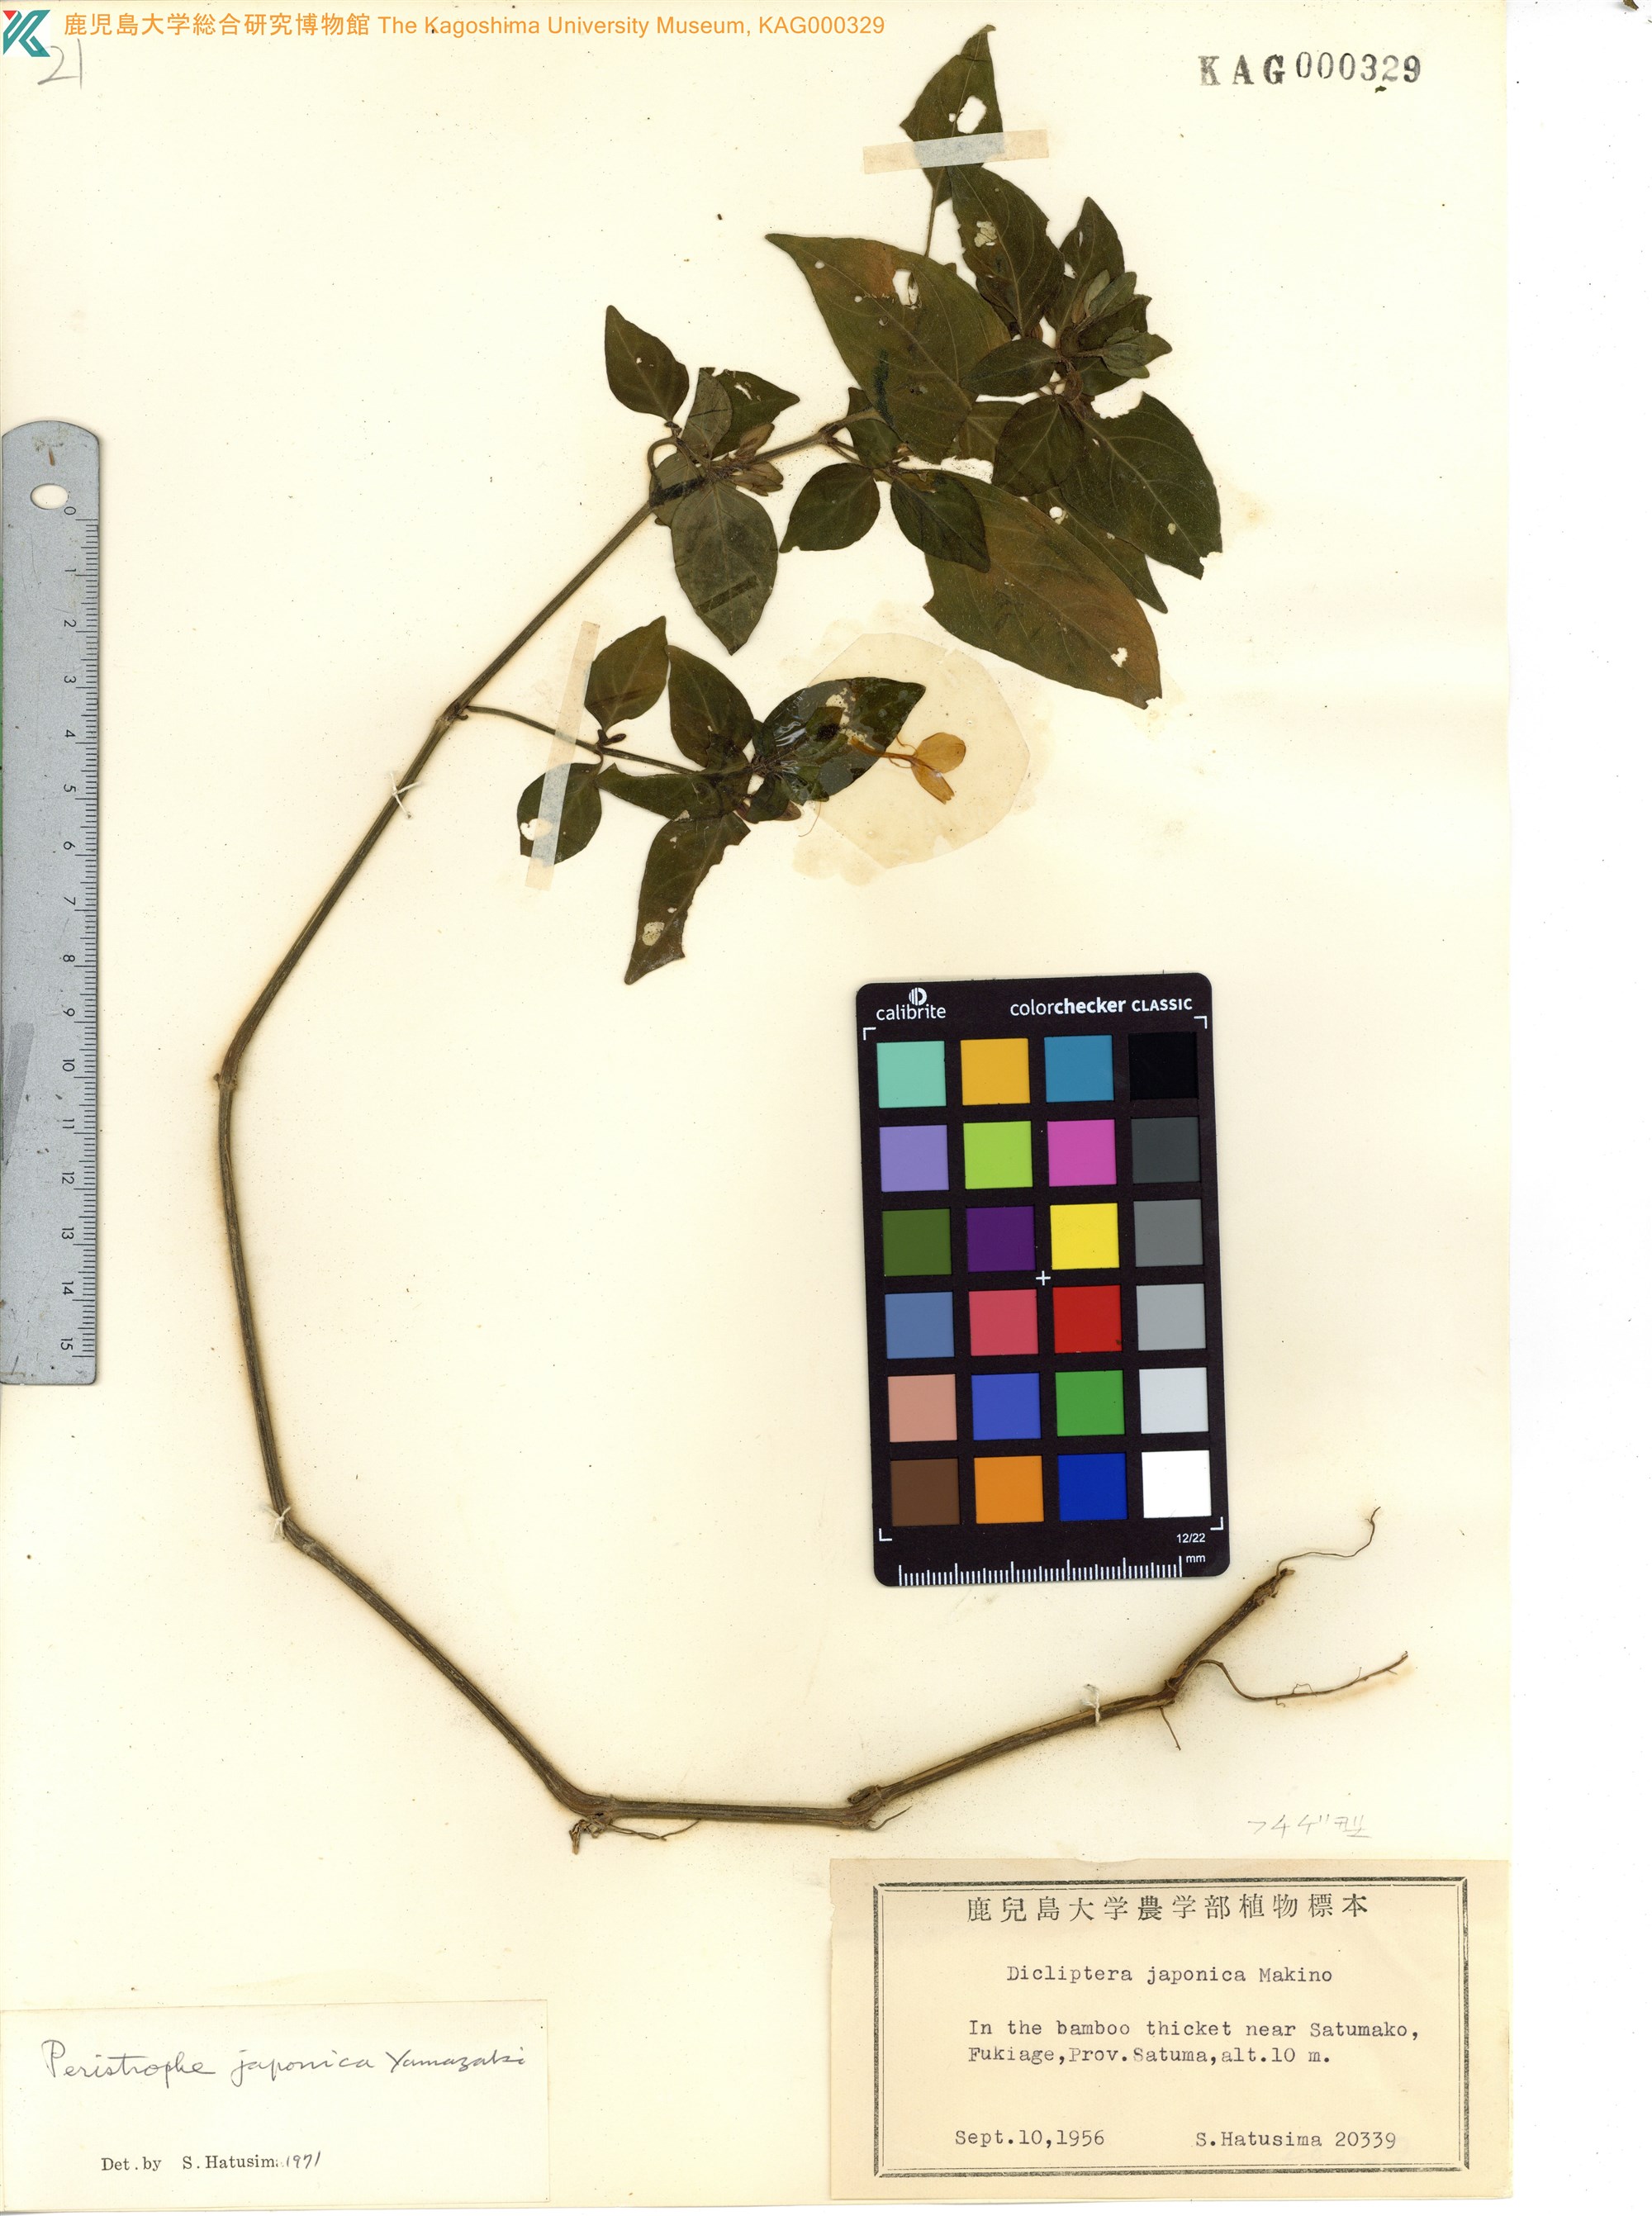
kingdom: Plantae
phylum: Tracheophyta
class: Magnoliopsida
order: Lamiales
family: Acanthaceae
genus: Dicliptera
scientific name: Dicliptera japonica
